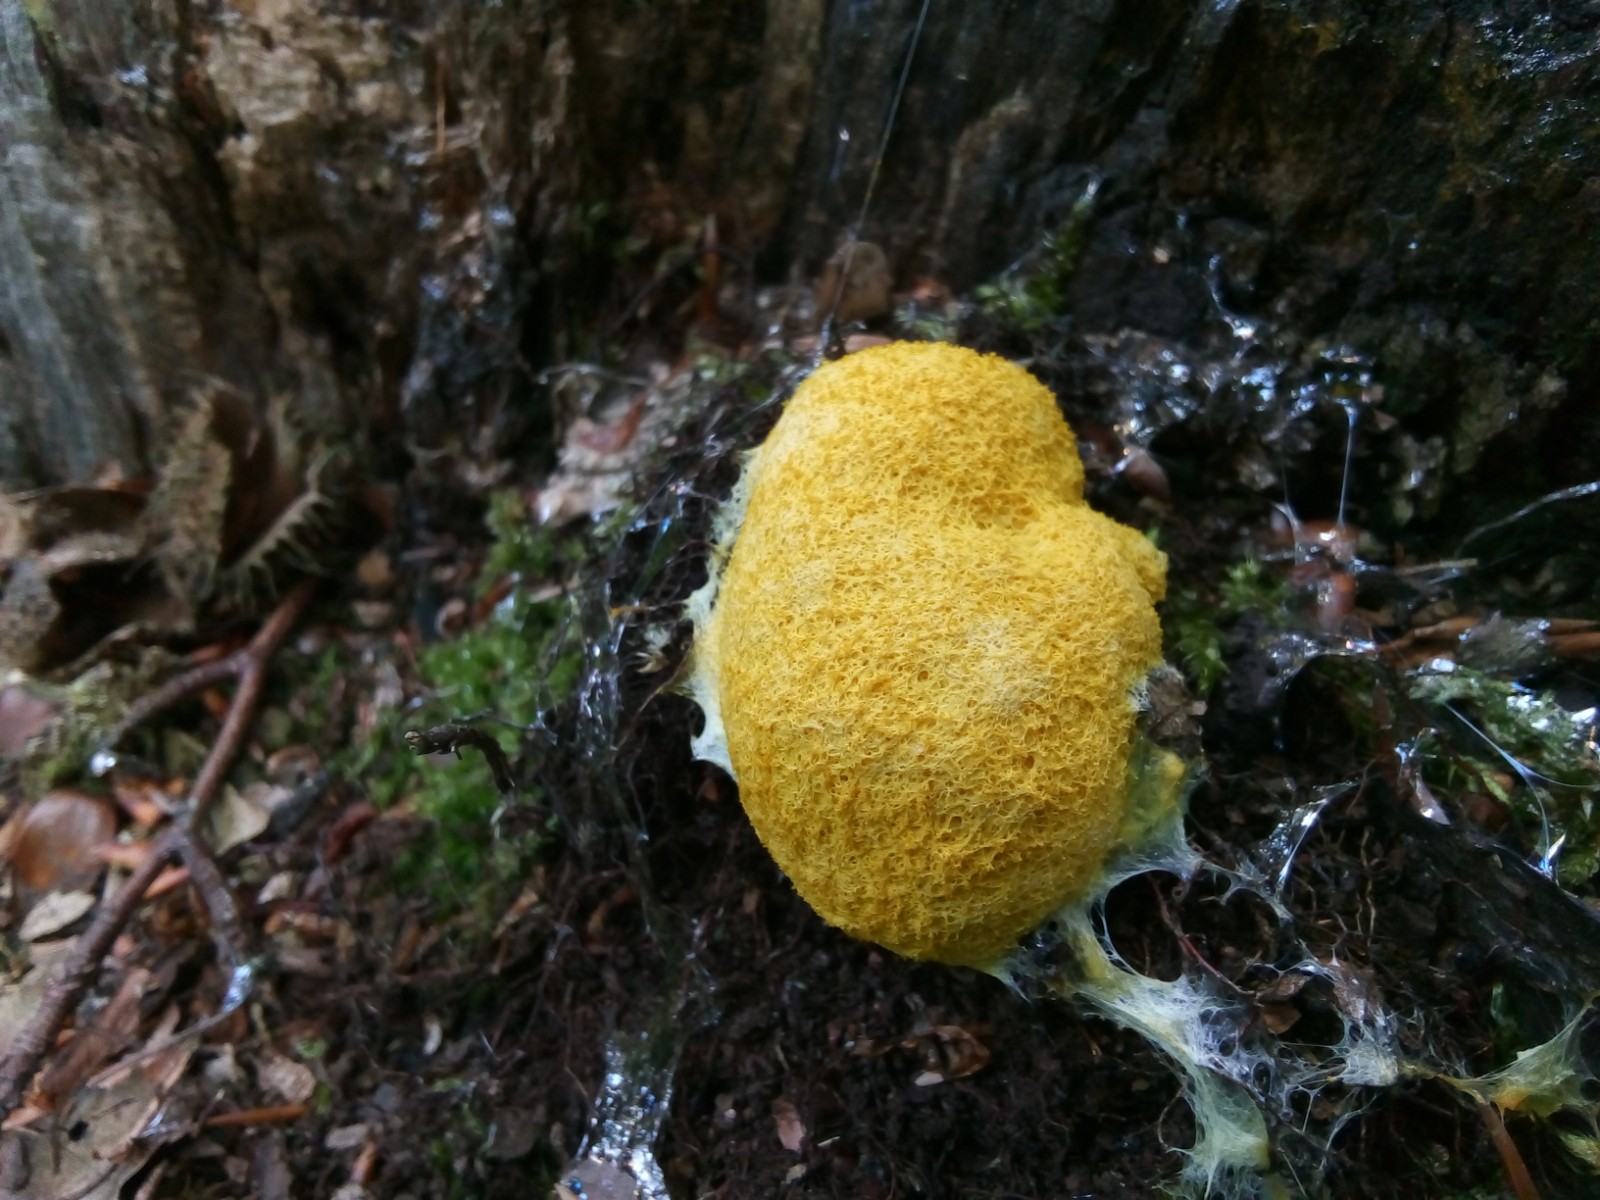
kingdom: Protozoa
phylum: Mycetozoa
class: Myxomycetes
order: Physarales
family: Physaraceae
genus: Fuligo
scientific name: Fuligo septica
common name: gul troldsmør
